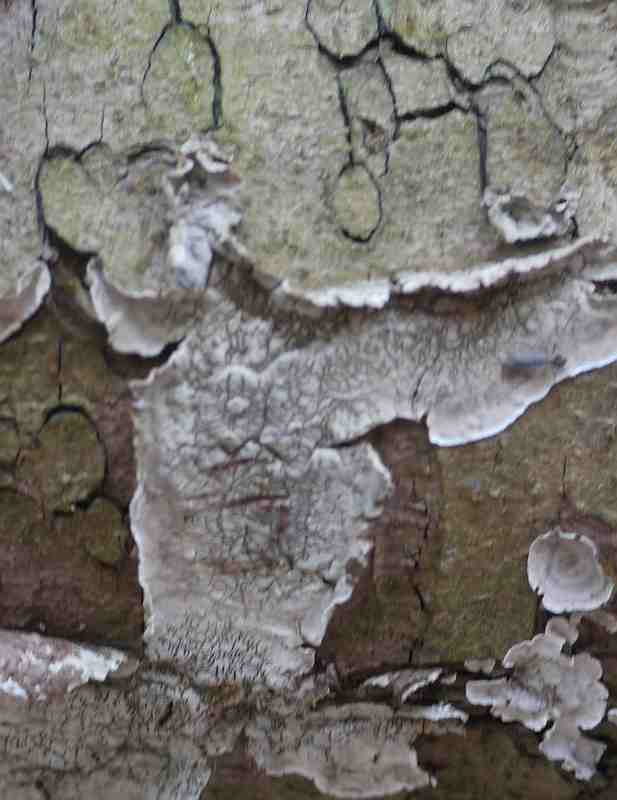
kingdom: Fungi
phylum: Basidiomycota
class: Agaricomycetes
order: Russulales
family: Stereaceae
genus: Stereum
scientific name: Stereum sanguinolentum
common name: blødende lædersvamp
